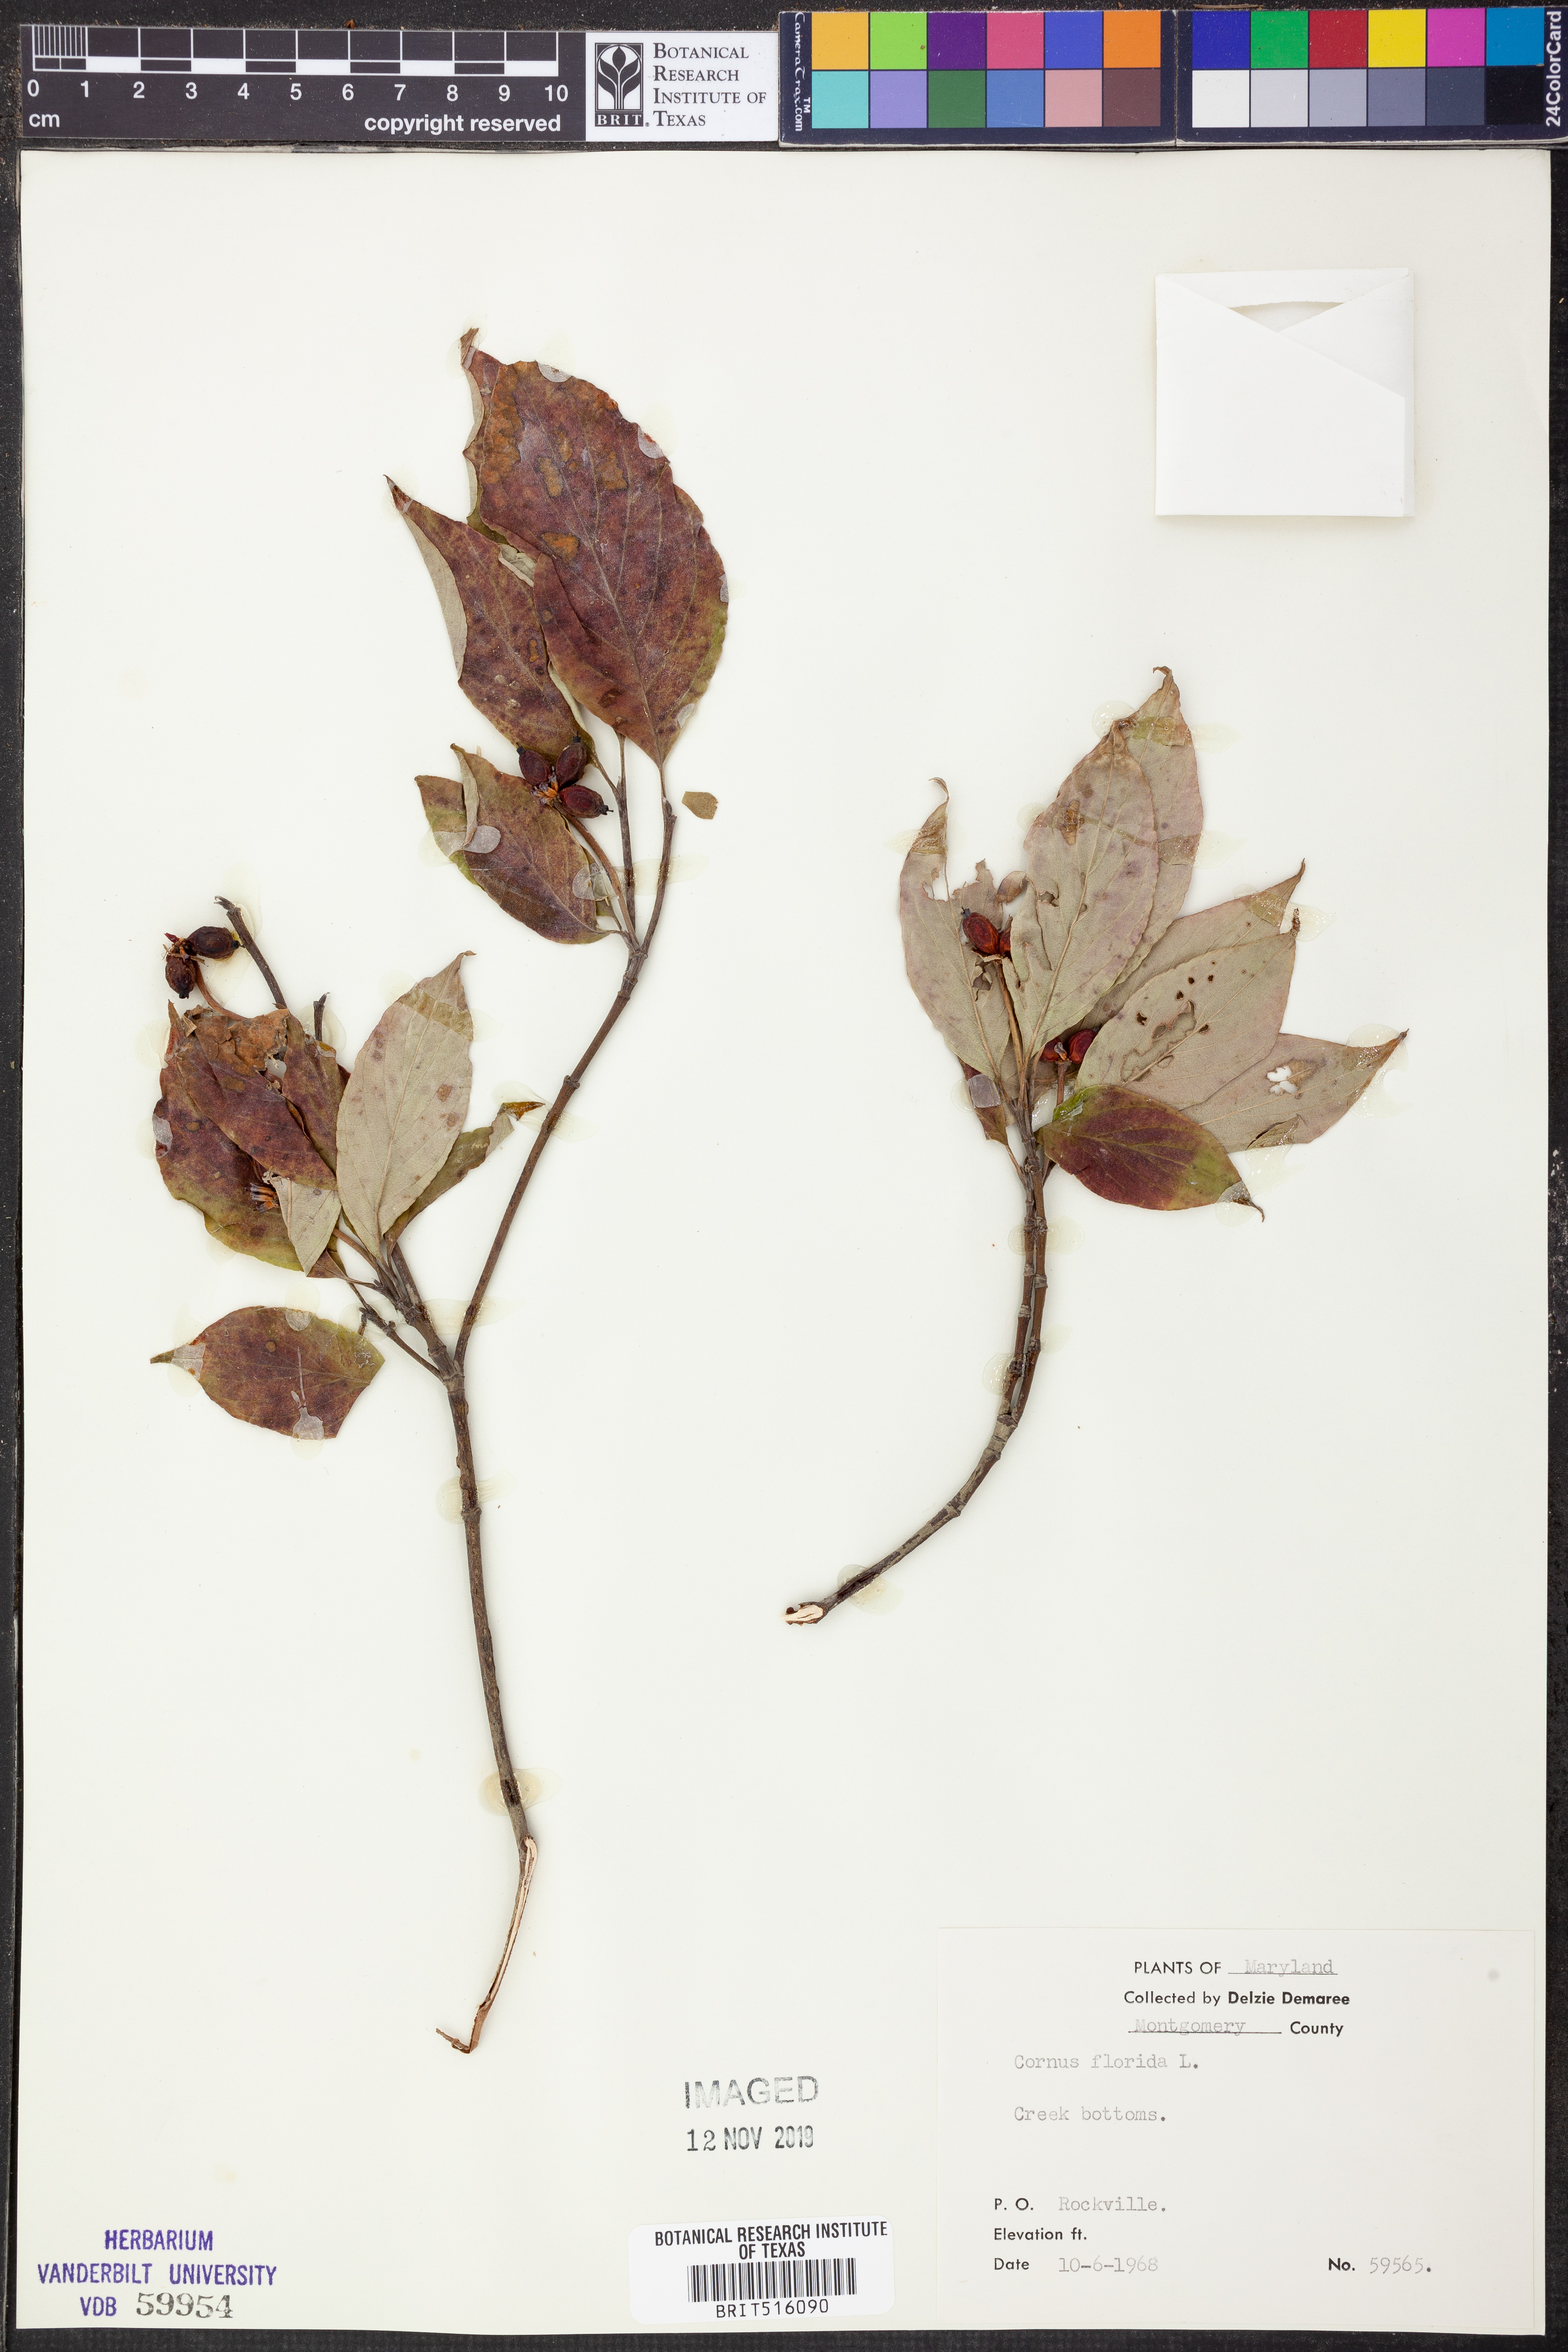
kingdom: Plantae
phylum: Tracheophyta
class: Magnoliopsida
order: Cornales
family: Cornaceae
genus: Cornus
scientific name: Cornus florida
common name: Flowering dogwood
